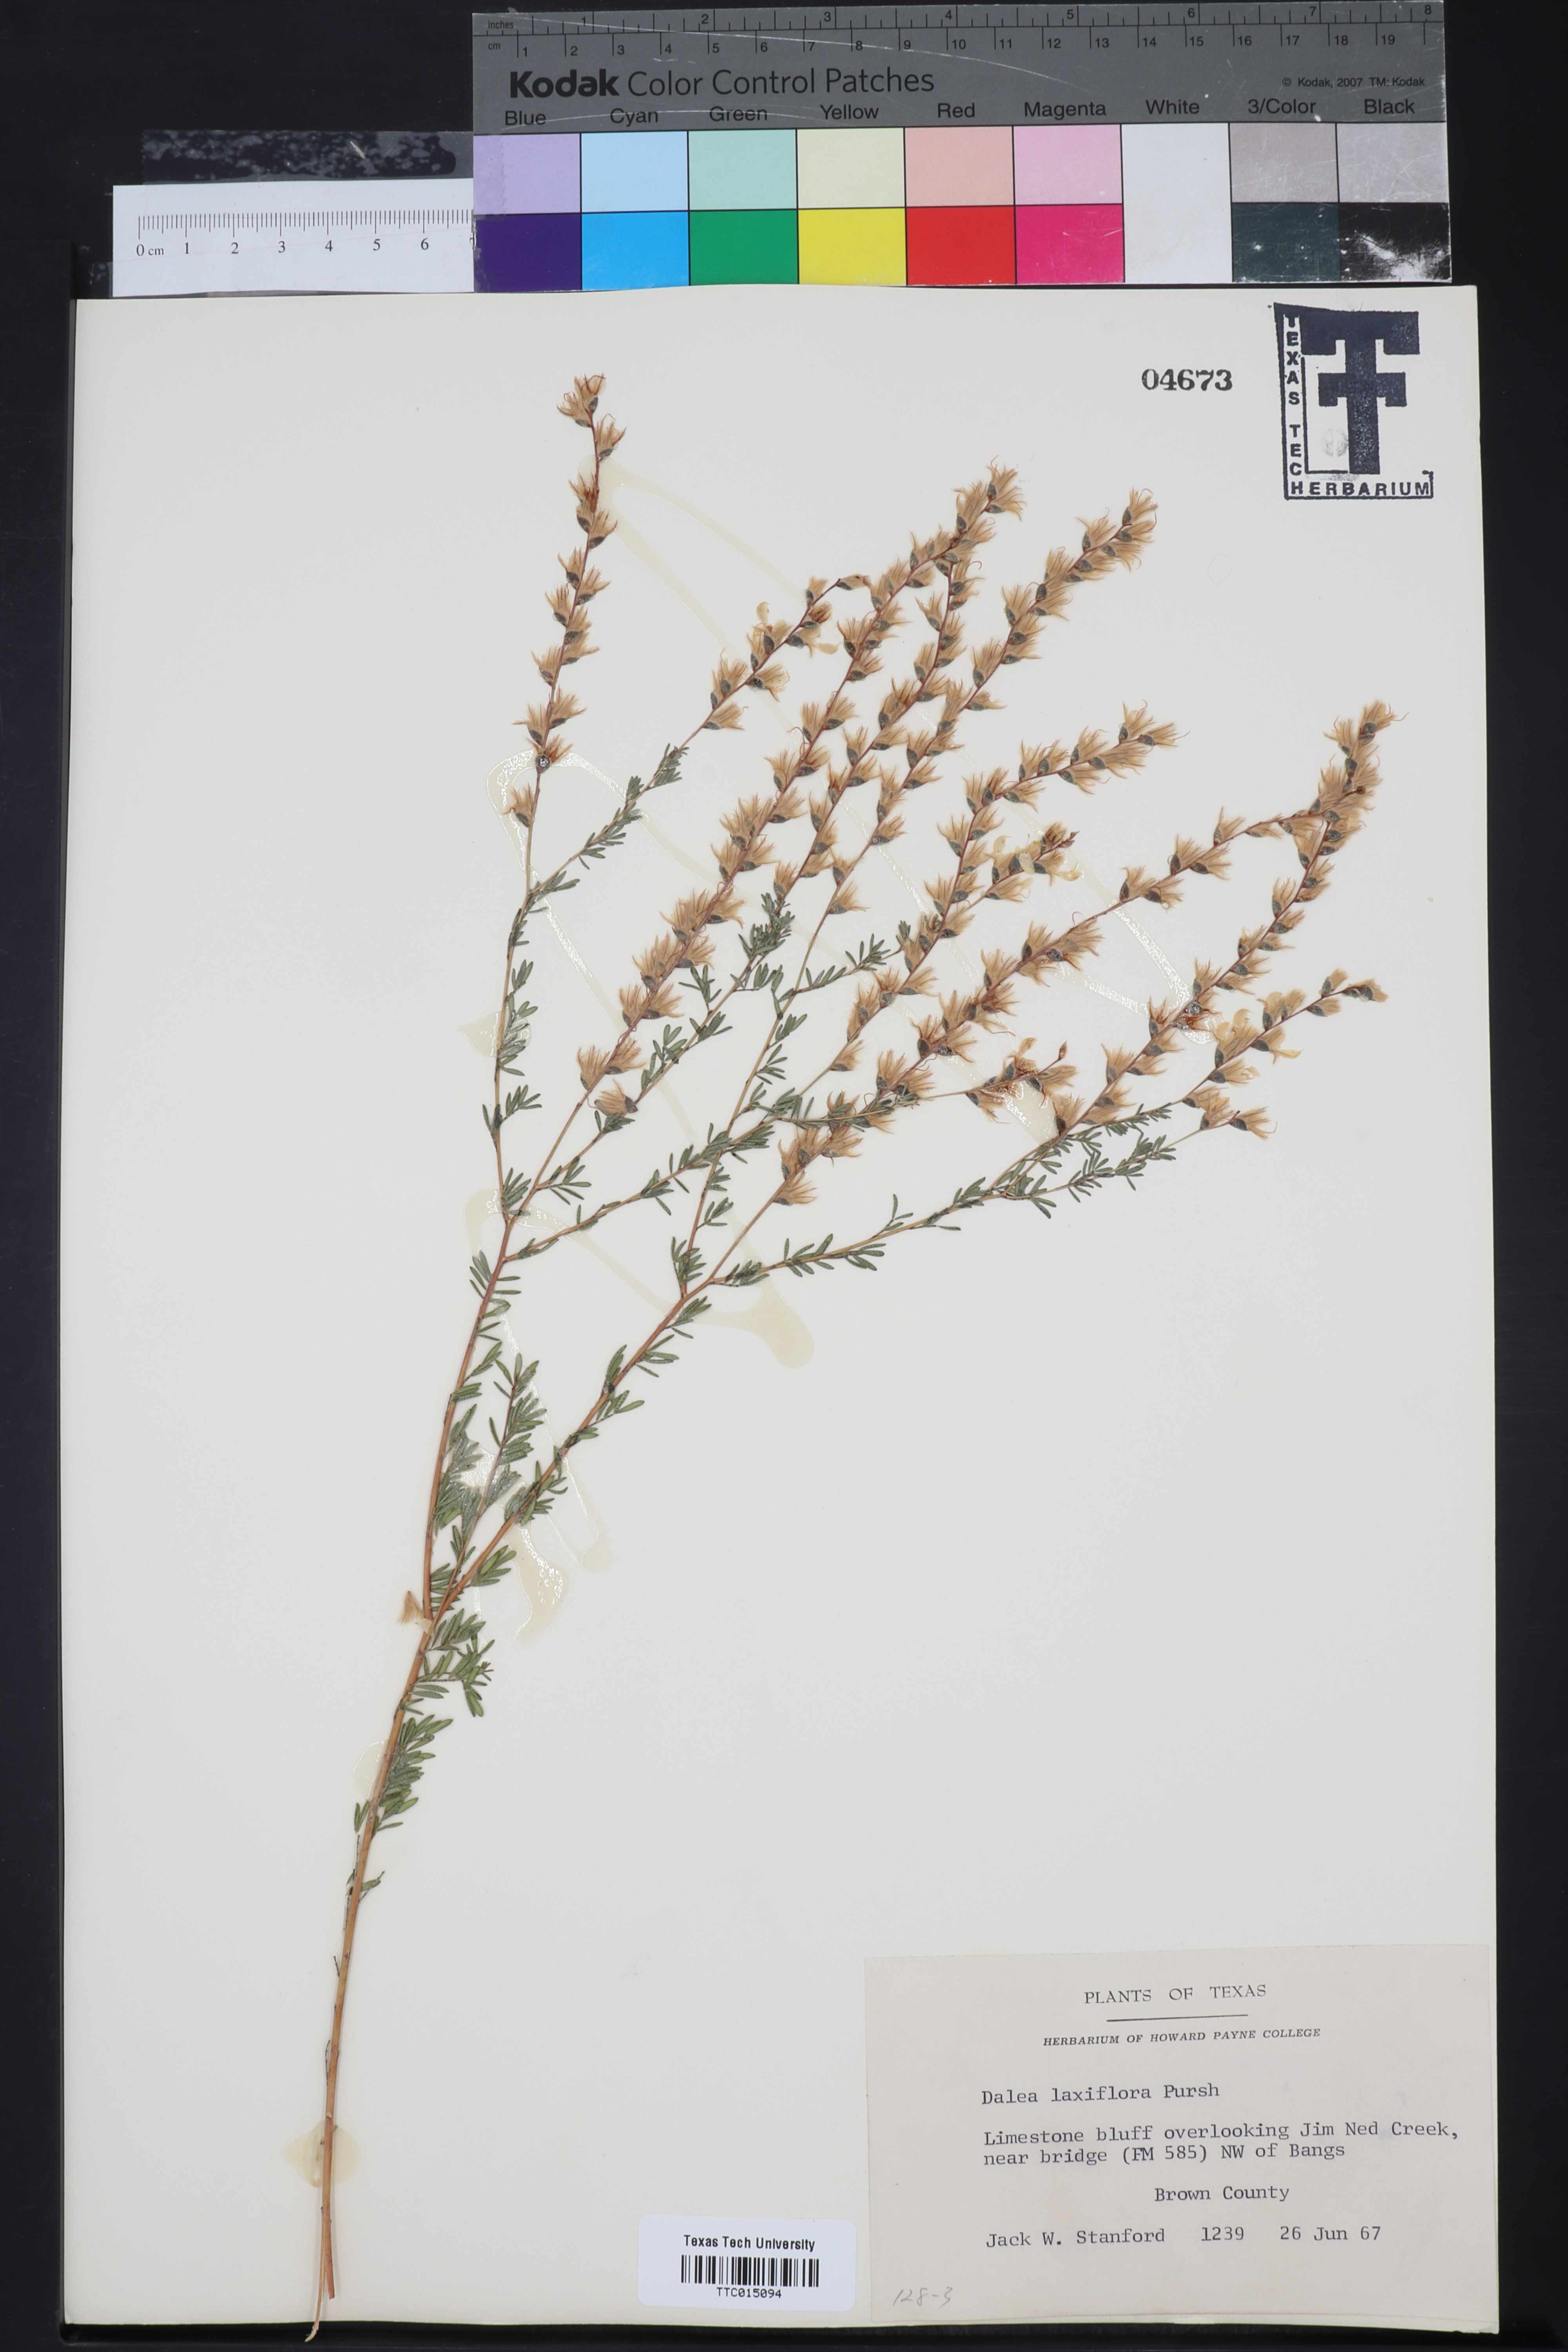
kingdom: Plantae
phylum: Tracheophyta
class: Magnoliopsida
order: Fabales
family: Fabaceae
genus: Dalea
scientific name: Dalea hegewischiana
